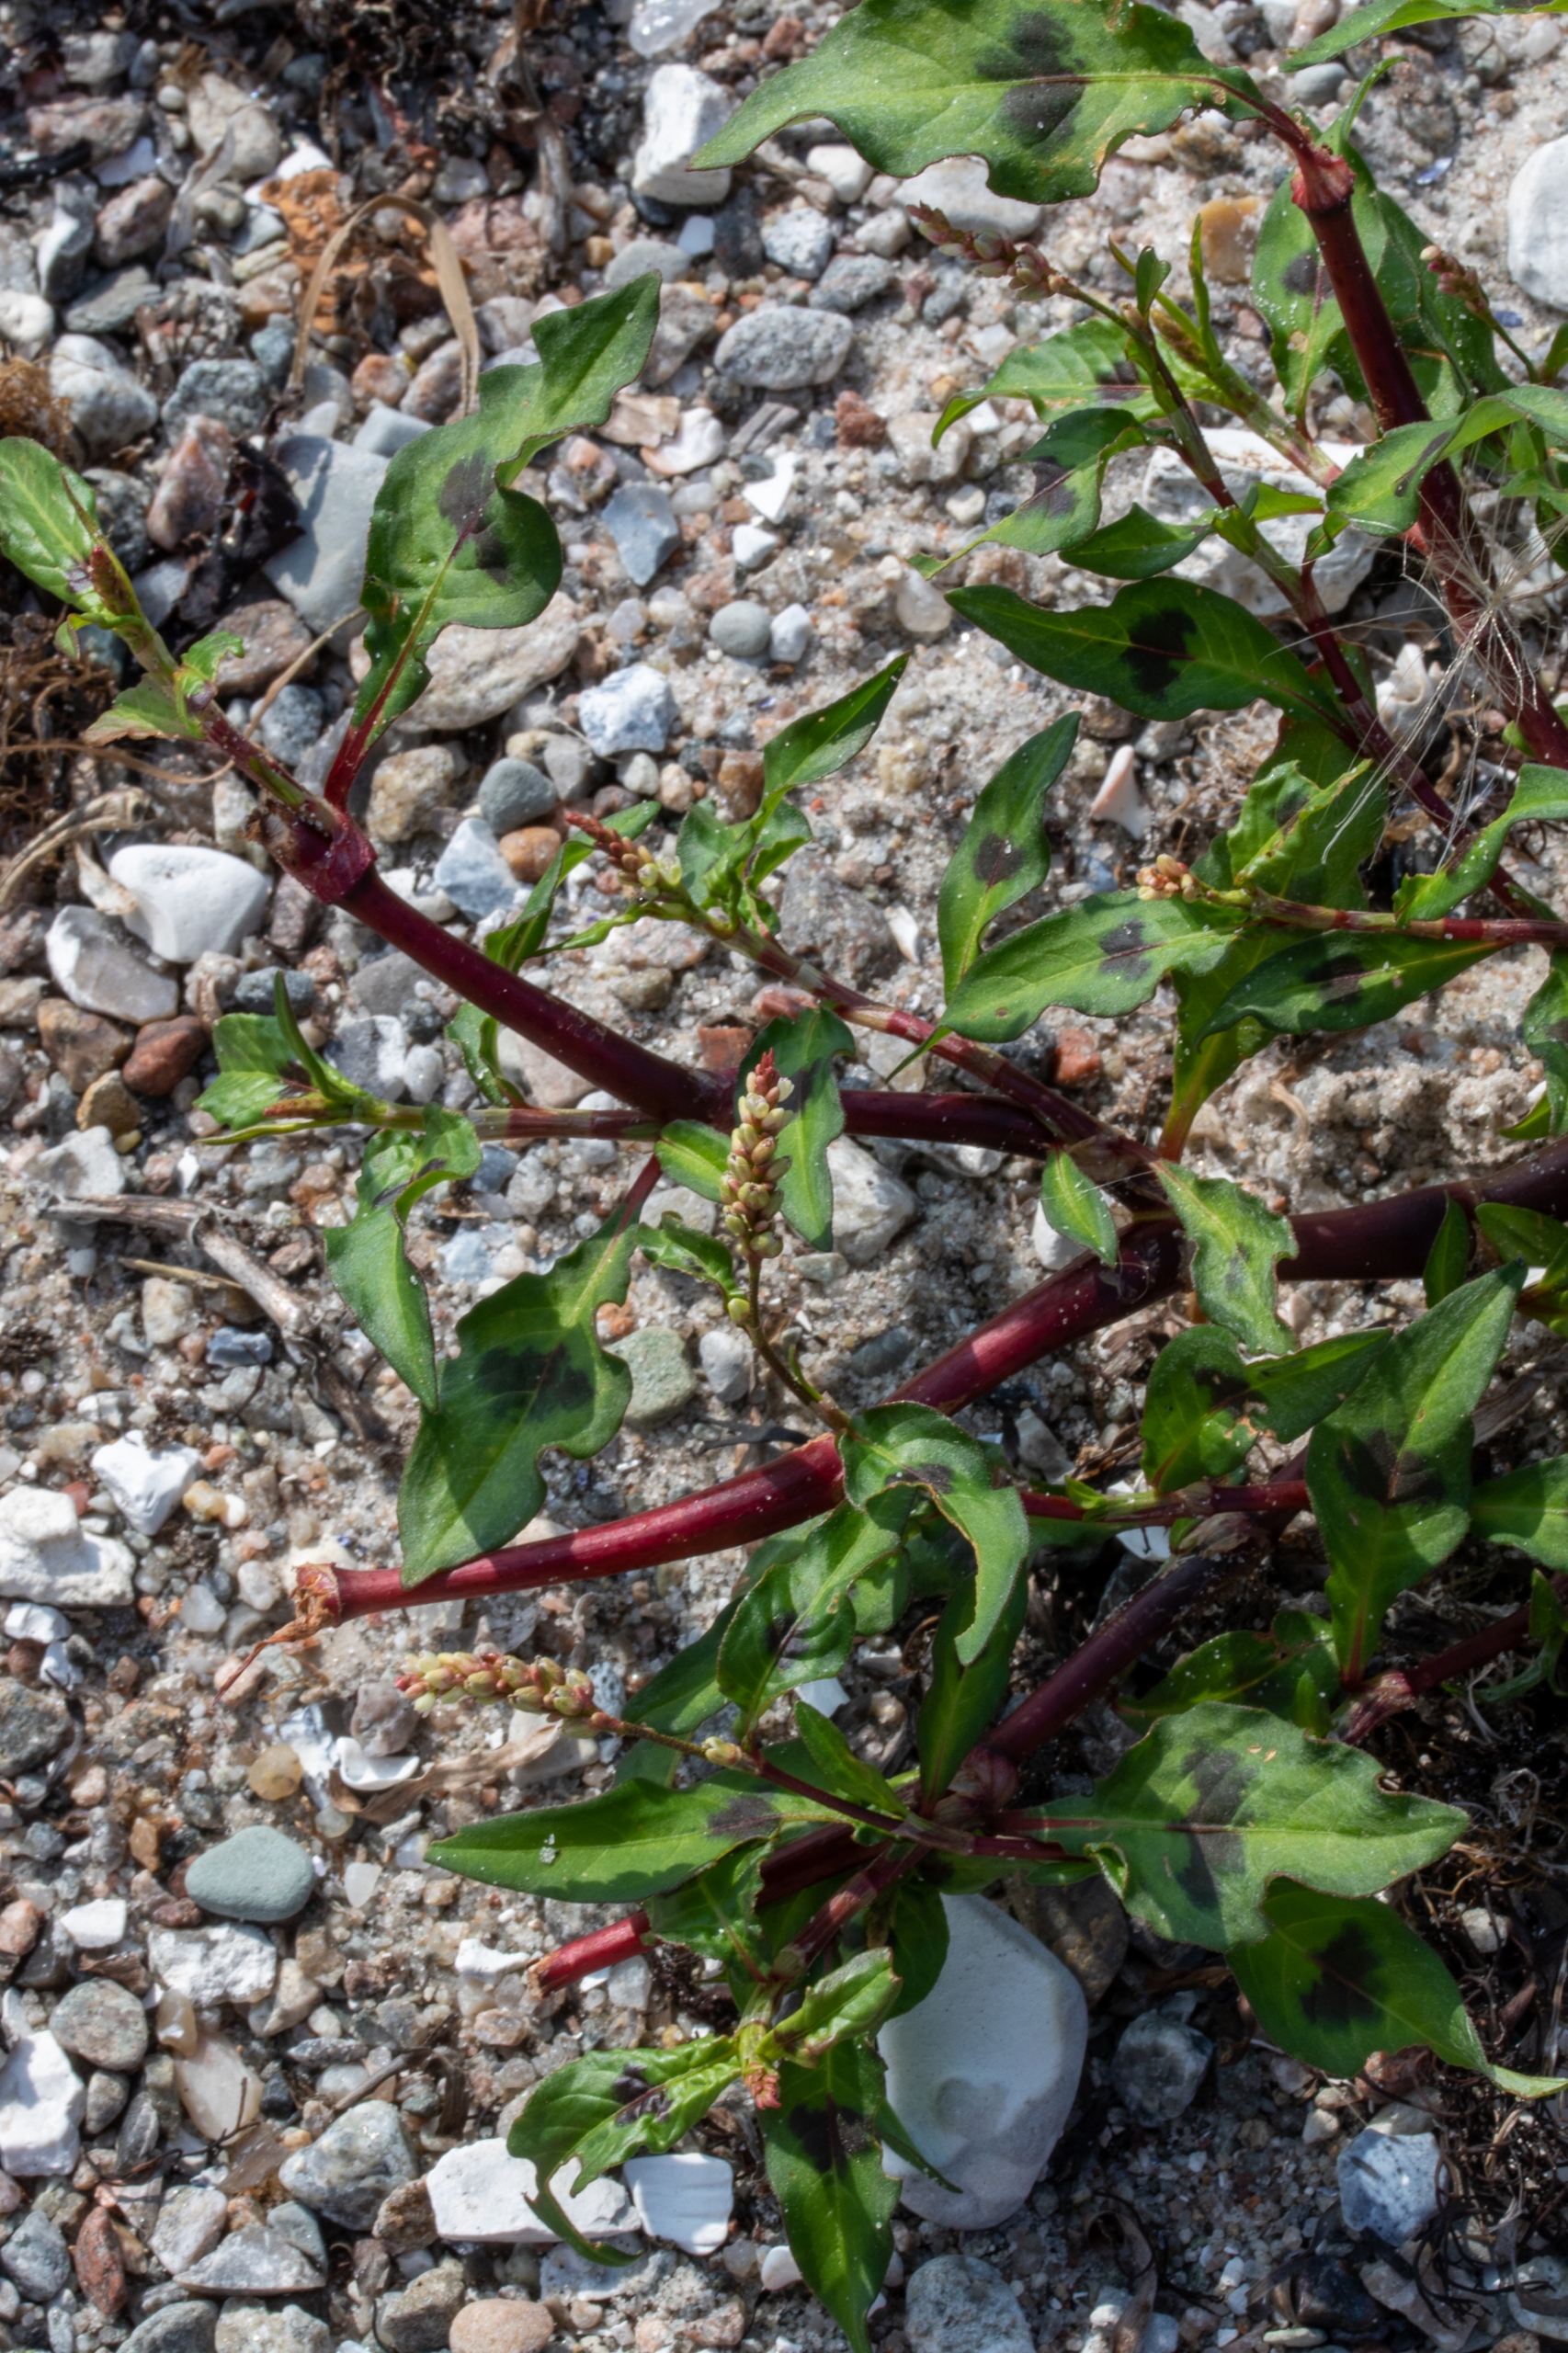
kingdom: Plantae
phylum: Tracheophyta
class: Magnoliopsida
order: Caryophyllales
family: Polygonaceae
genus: Persicaria
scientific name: Persicaria lapathifolia
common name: Knudet pileurt
